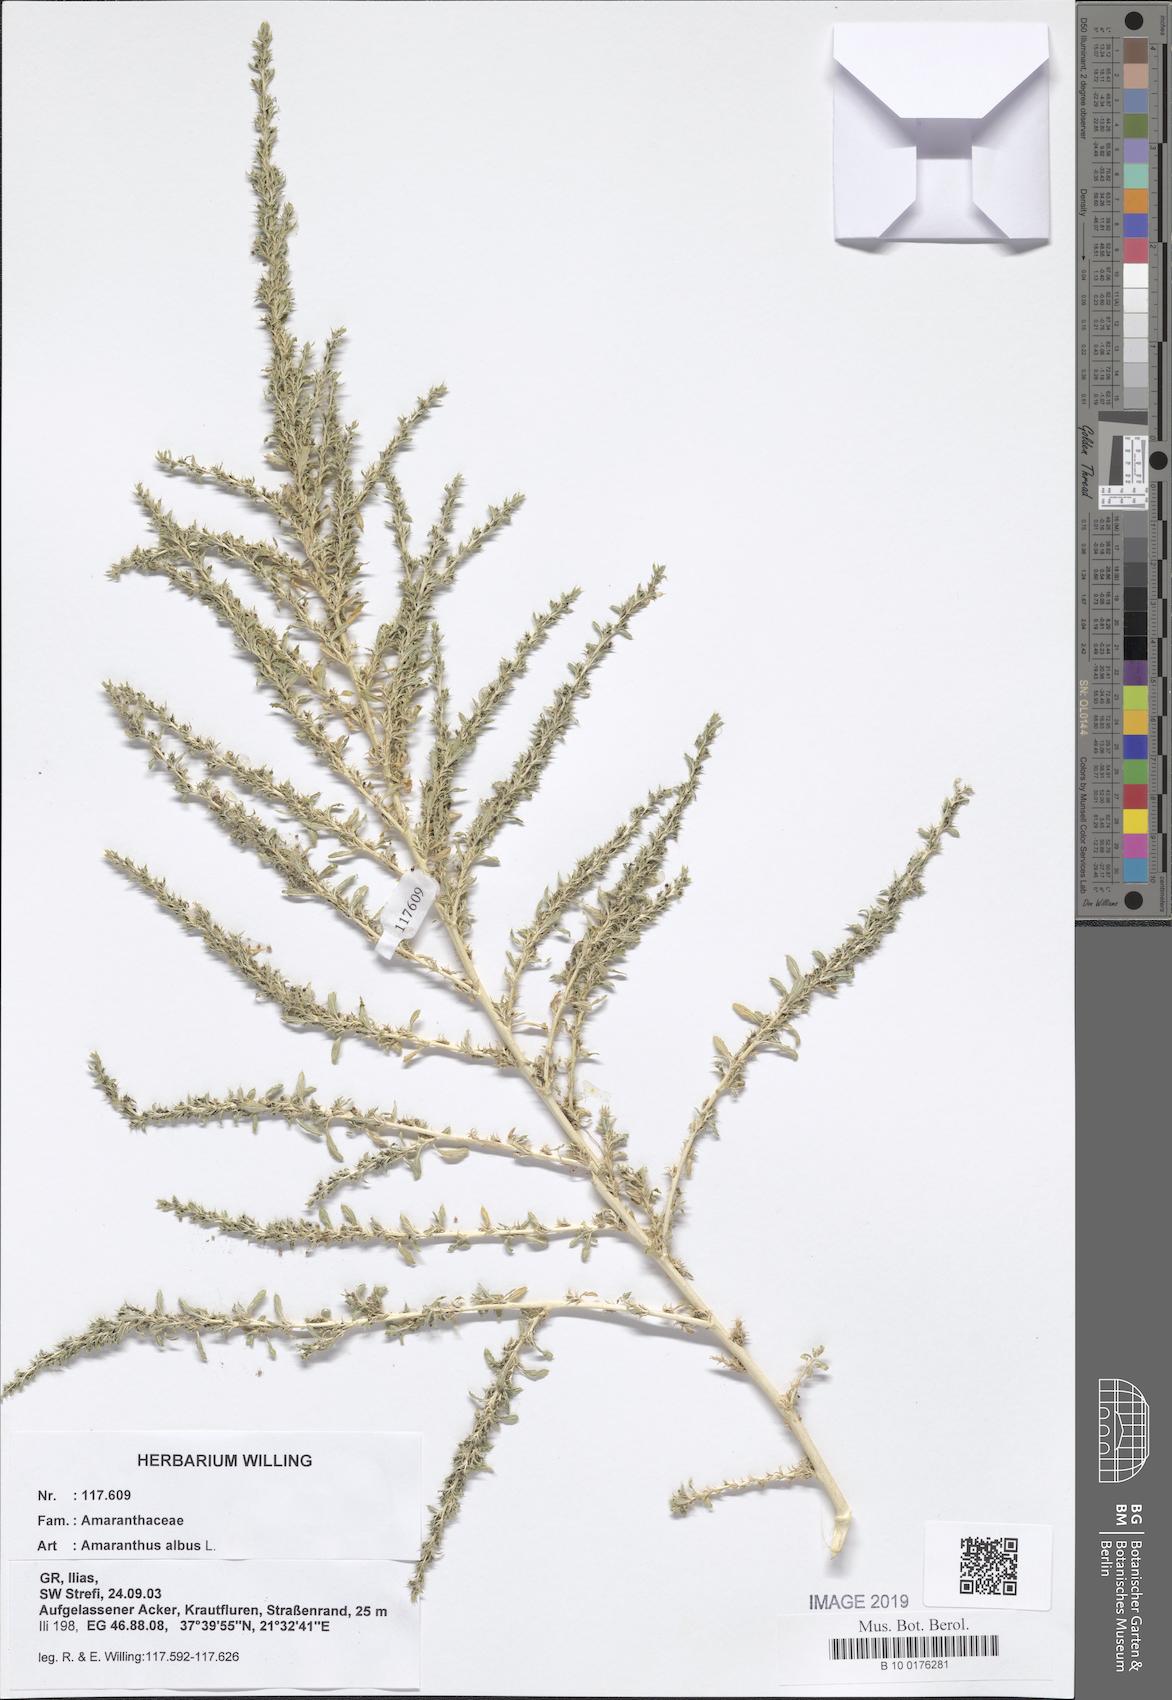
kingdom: Plantae
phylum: Tracheophyta
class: Magnoliopsida
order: Caryophyllales
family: Amaranthaceae
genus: Amaranthus
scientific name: Amaranthus albus
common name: White pigweed
